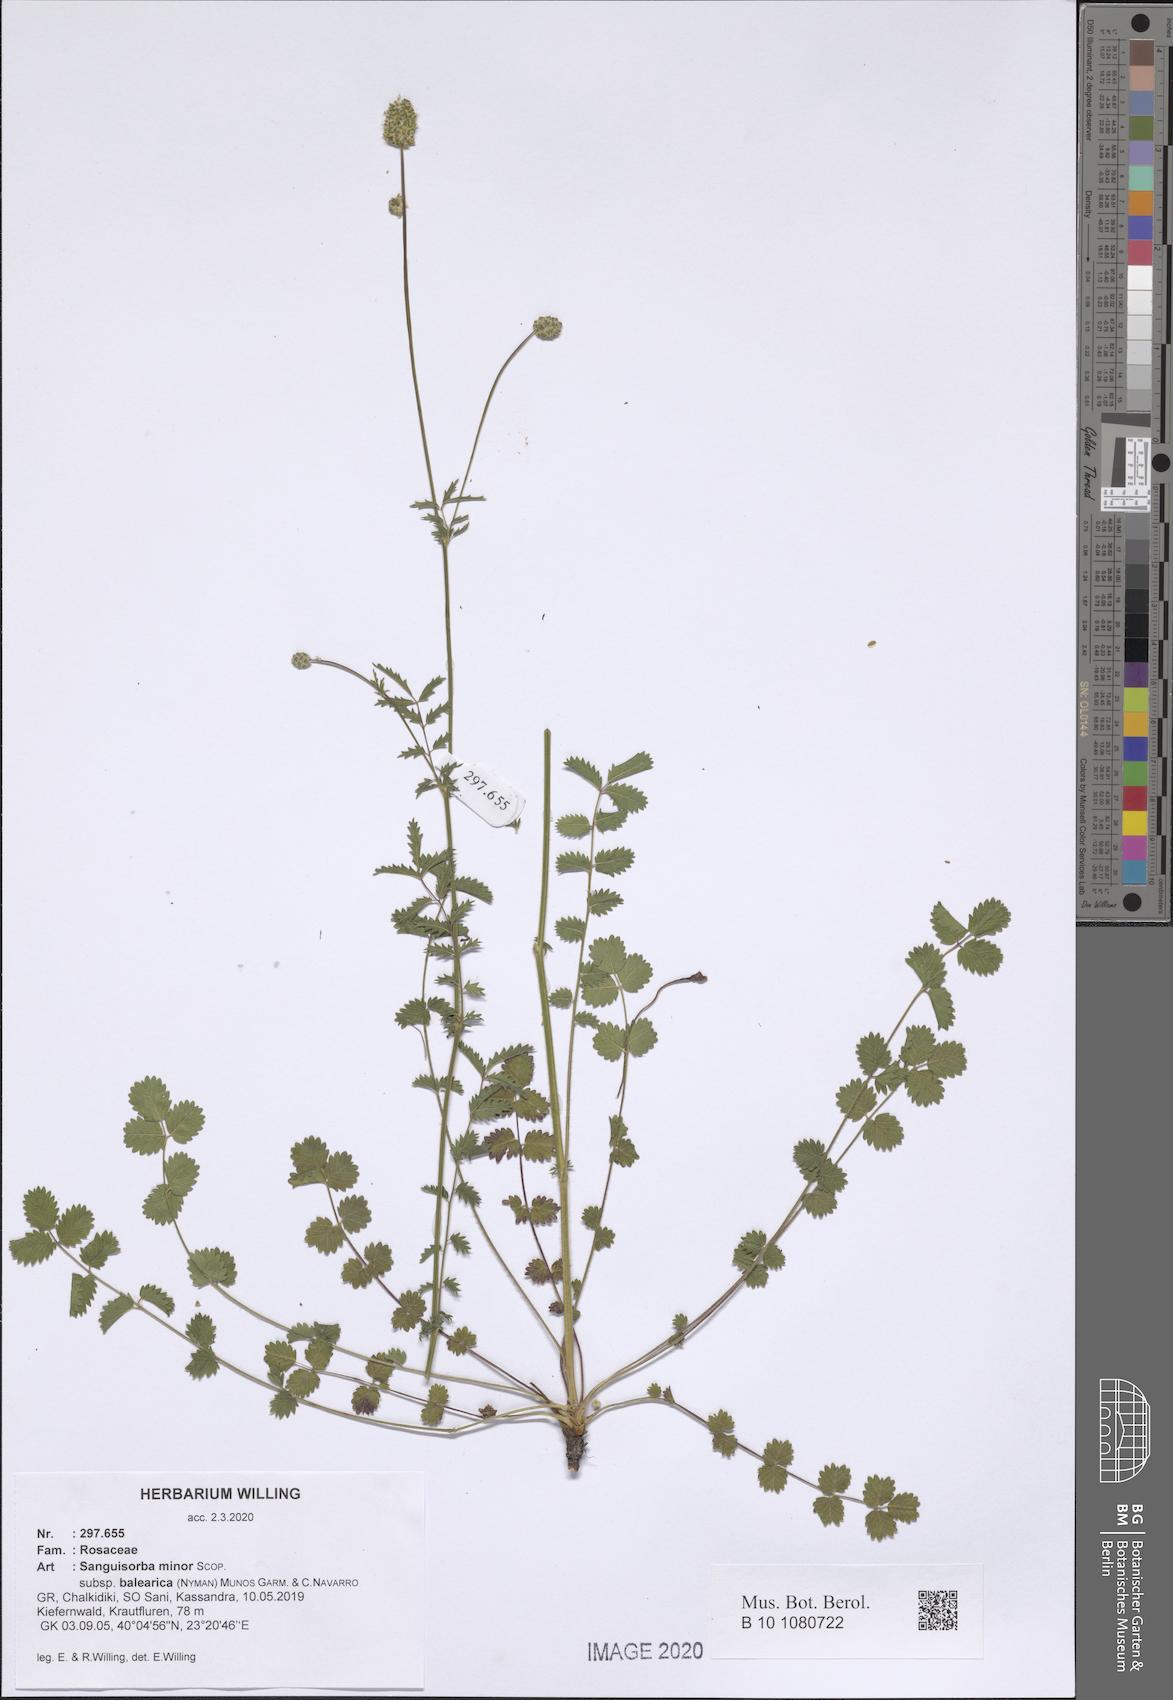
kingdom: Plantae
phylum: Tracheophyta
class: Magnoliopsida
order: Rosales
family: Rosaceae
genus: Poterium
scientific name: Poterium sanguisorba
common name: Salad burnet
